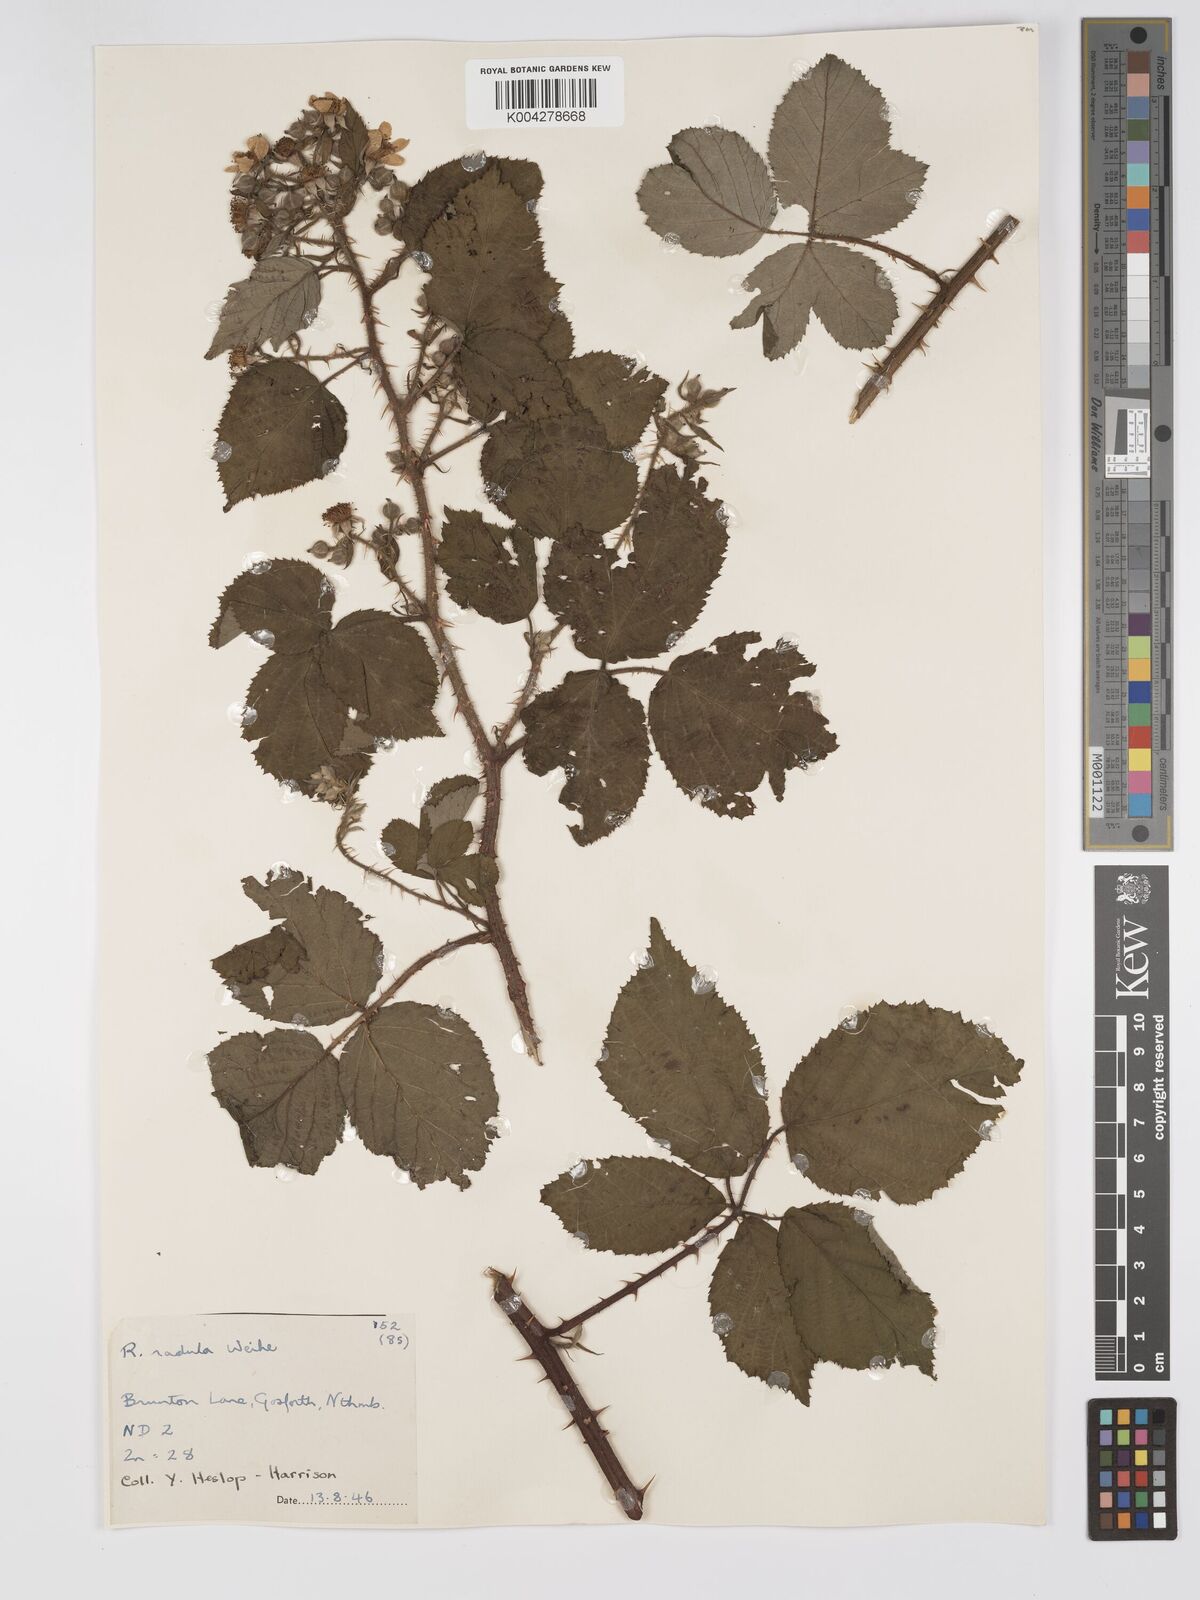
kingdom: Plantae
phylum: Tracheophyta
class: Magnoliopsida
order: Rosales
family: Rosaceae
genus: Rubus
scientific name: Rubus radula
